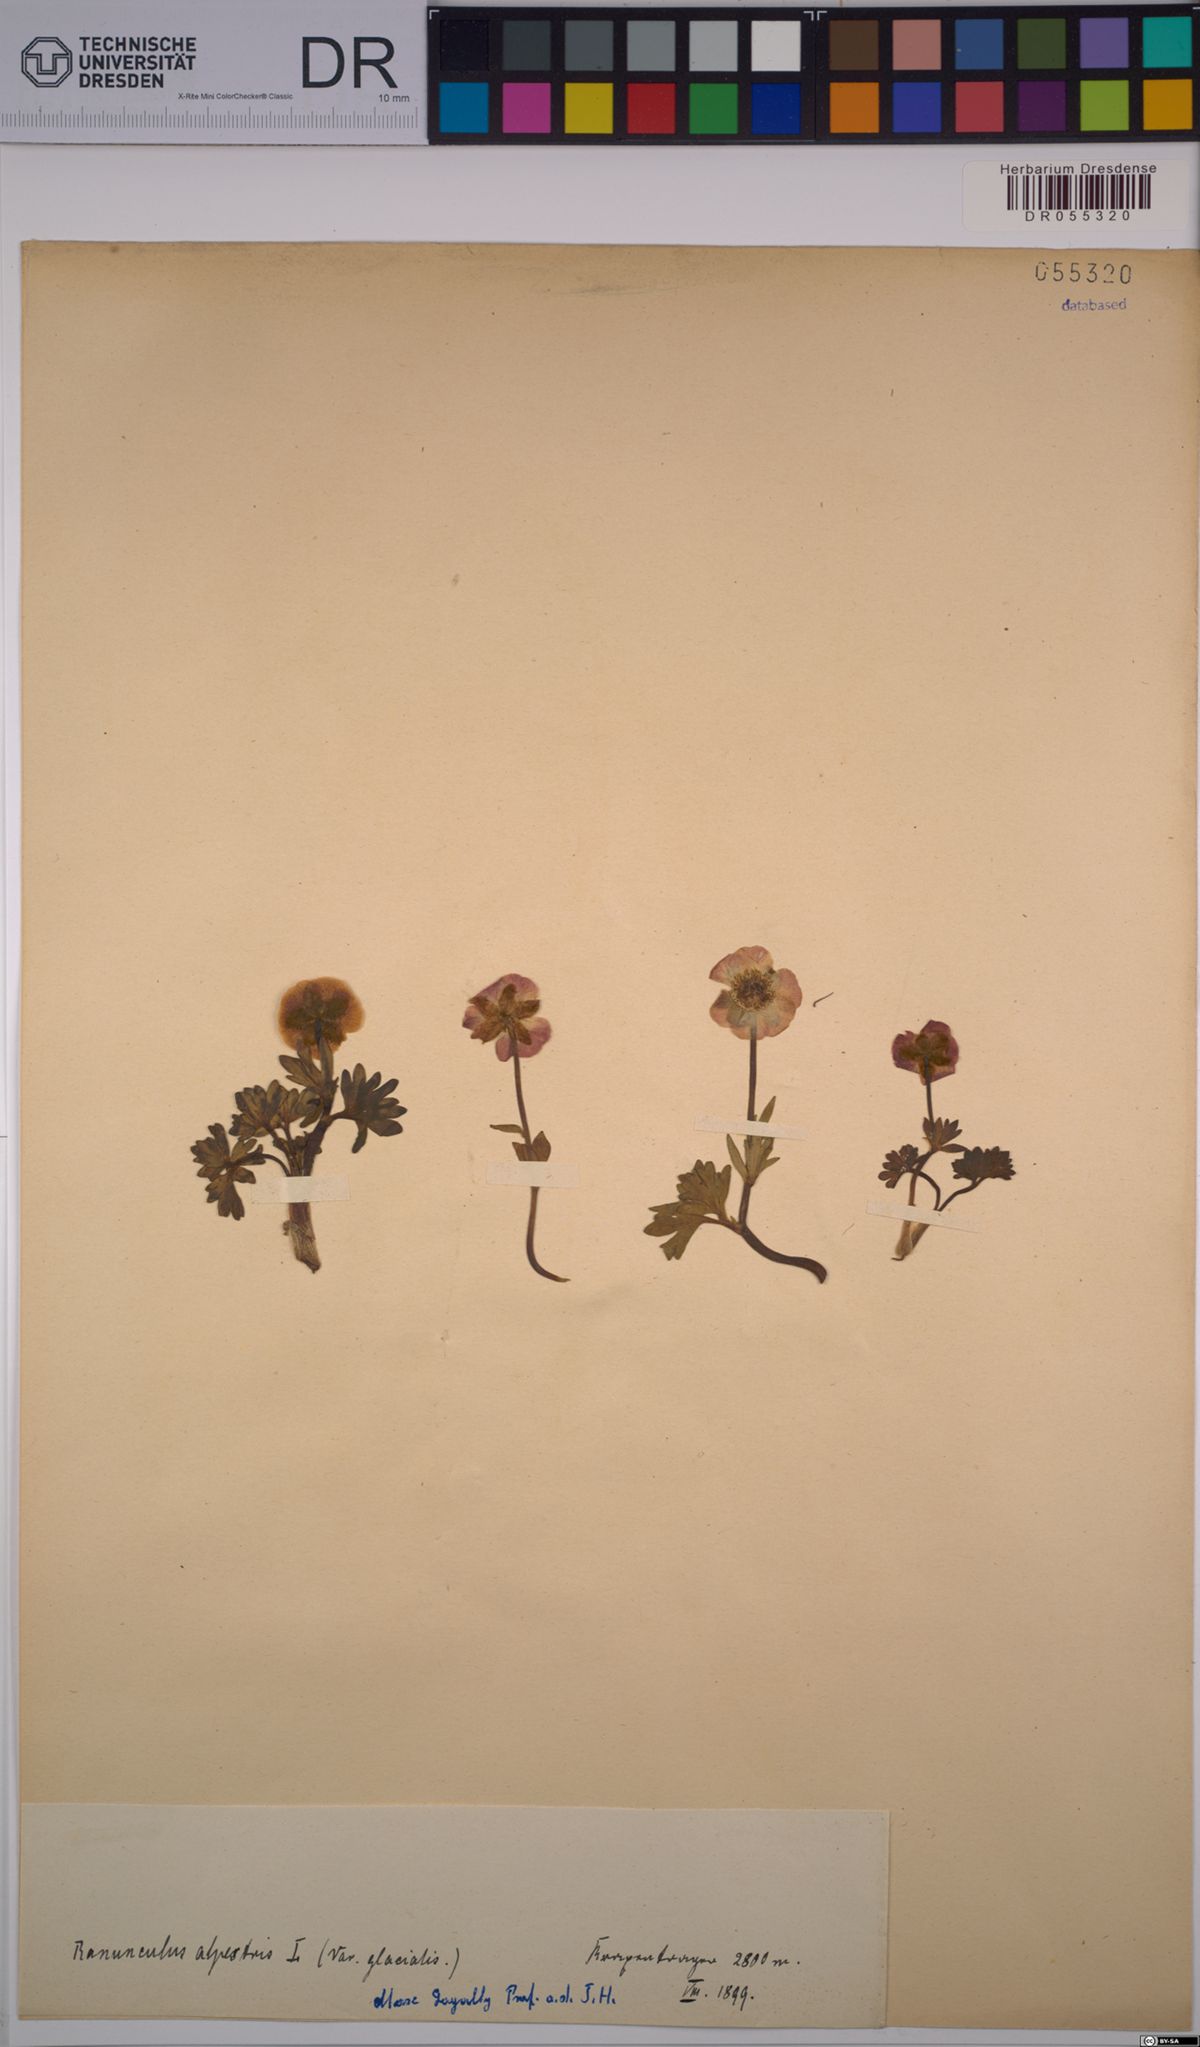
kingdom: Plantae
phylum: Tracheophyta
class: Magnoliopsida
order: Ranunculales
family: Ranunculaceae
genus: Ranunculus
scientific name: Ranunculus alpestris
